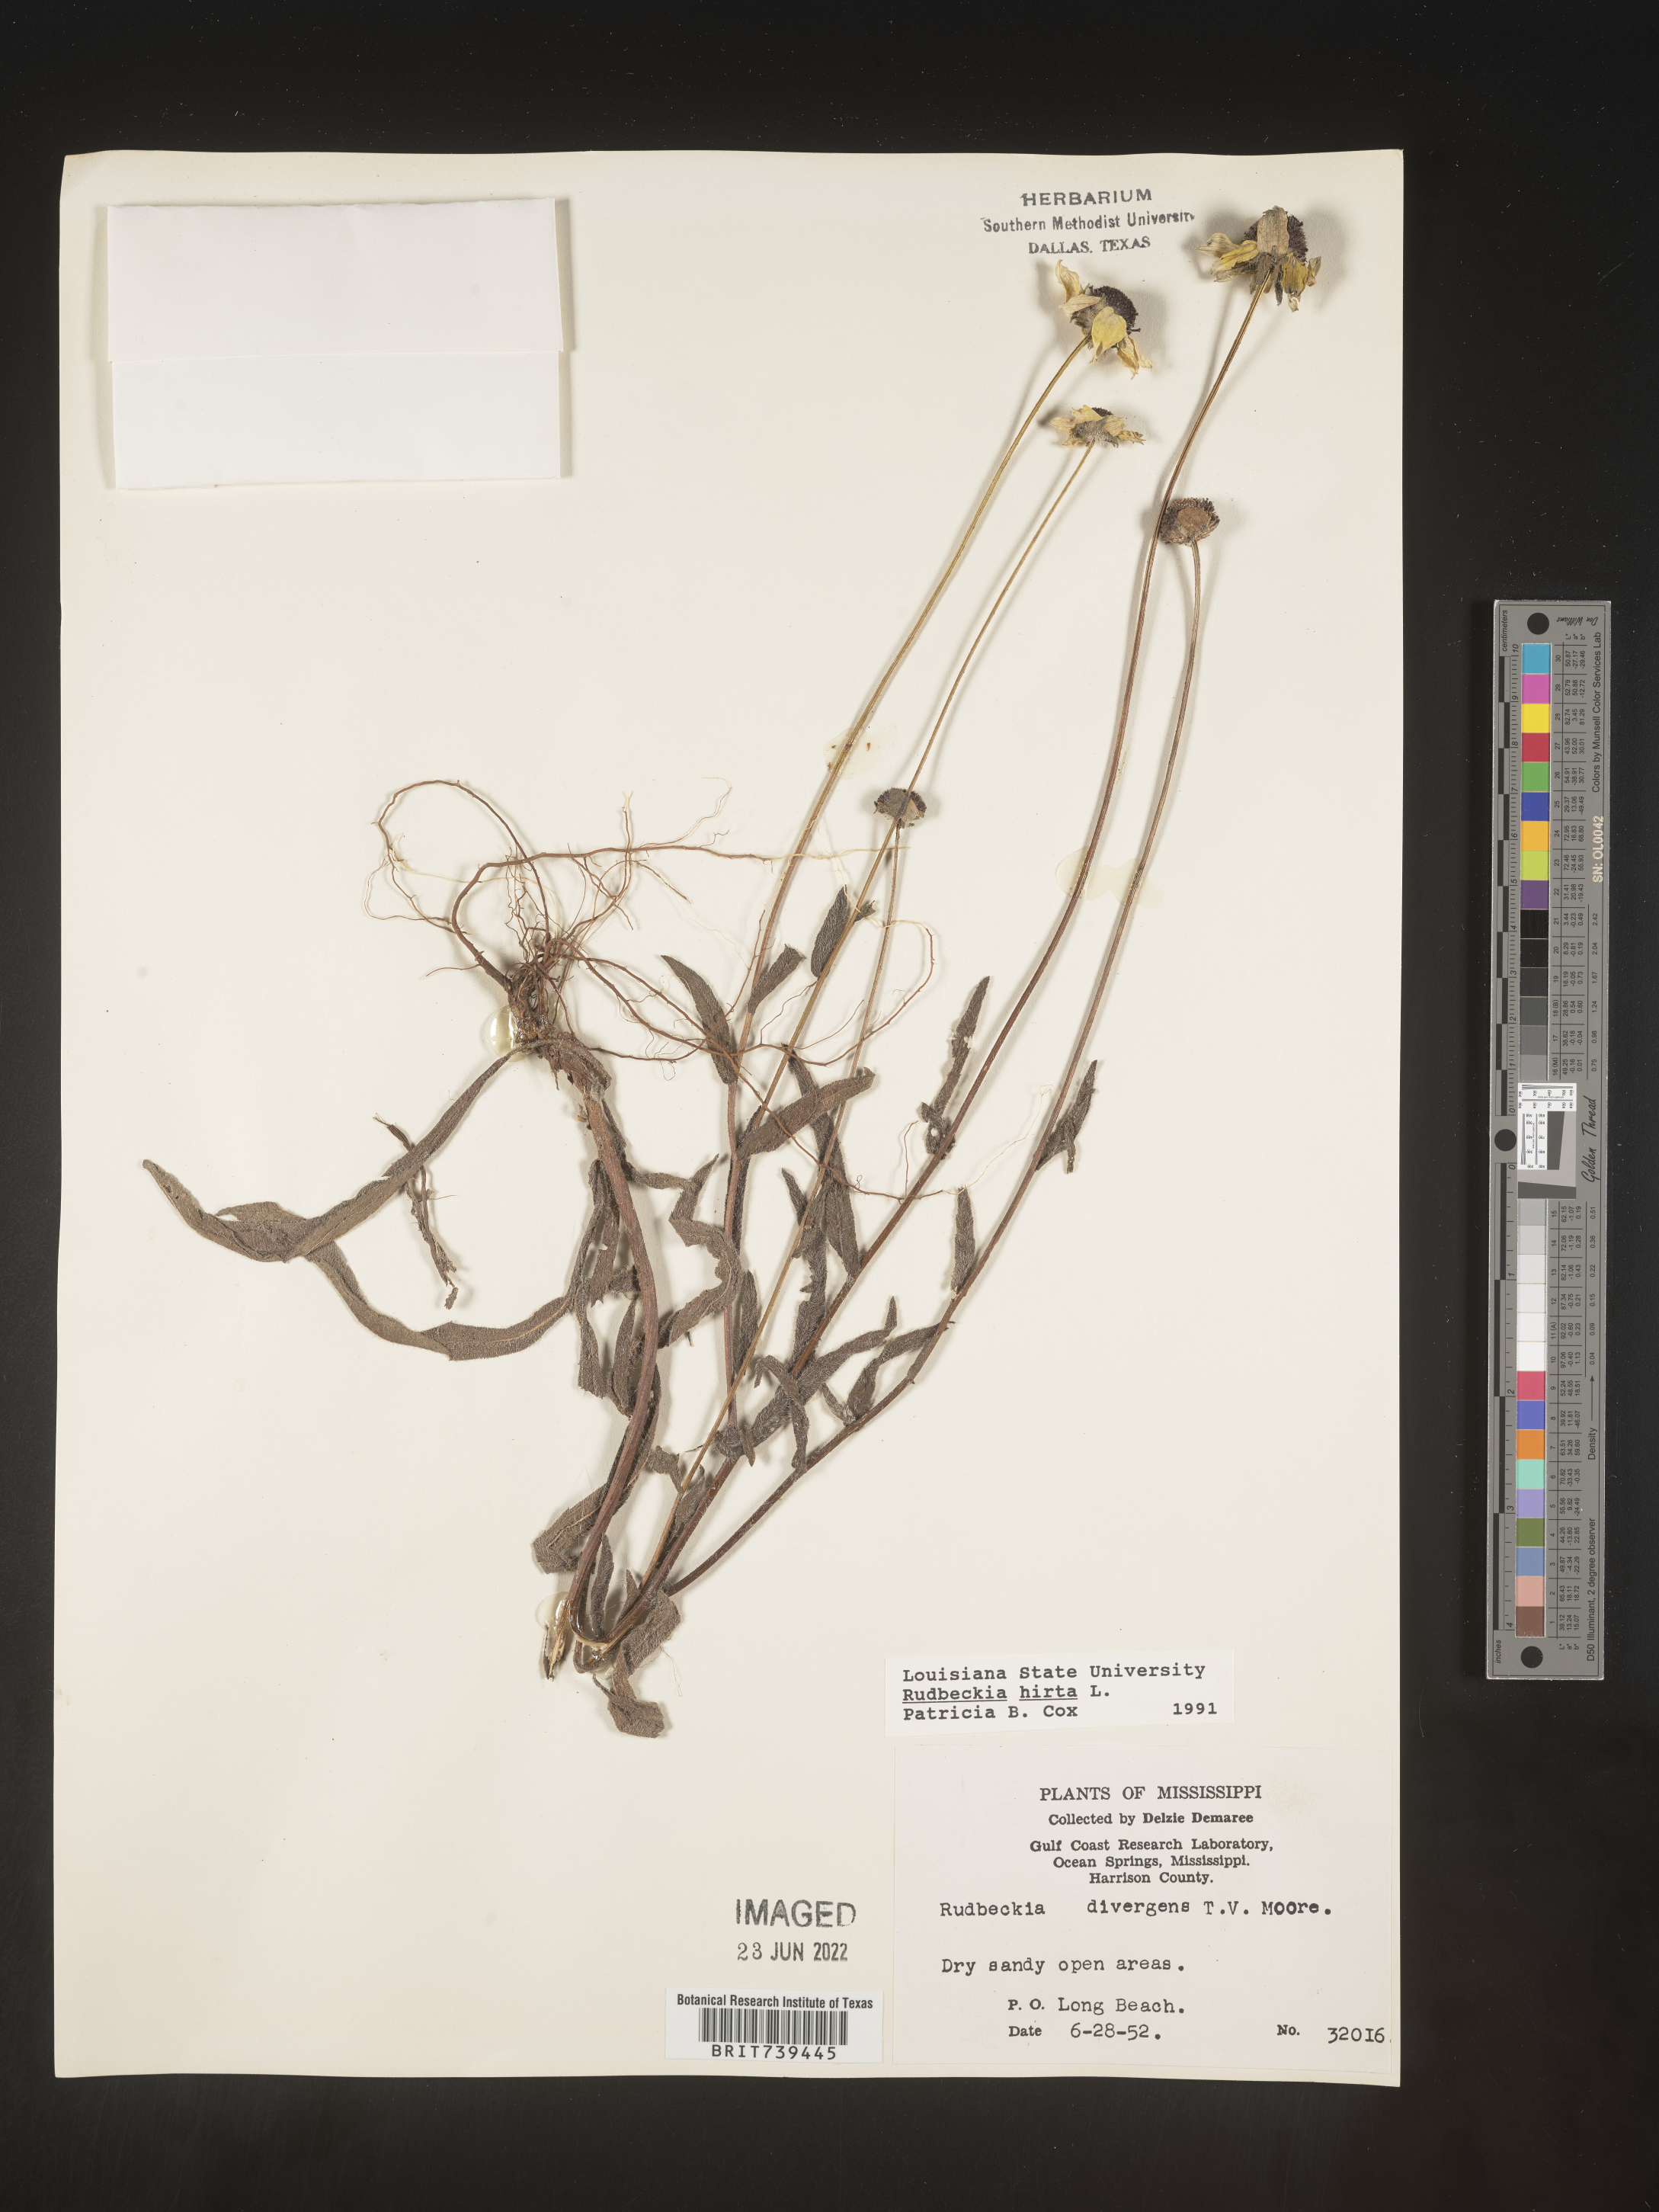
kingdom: Plantae
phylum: Tracheophyta
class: Magnoliopsida
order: Asterales
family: Asteraceae
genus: Rudbeckia
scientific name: Rudbeckia hirta
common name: Black-eyed-susan
